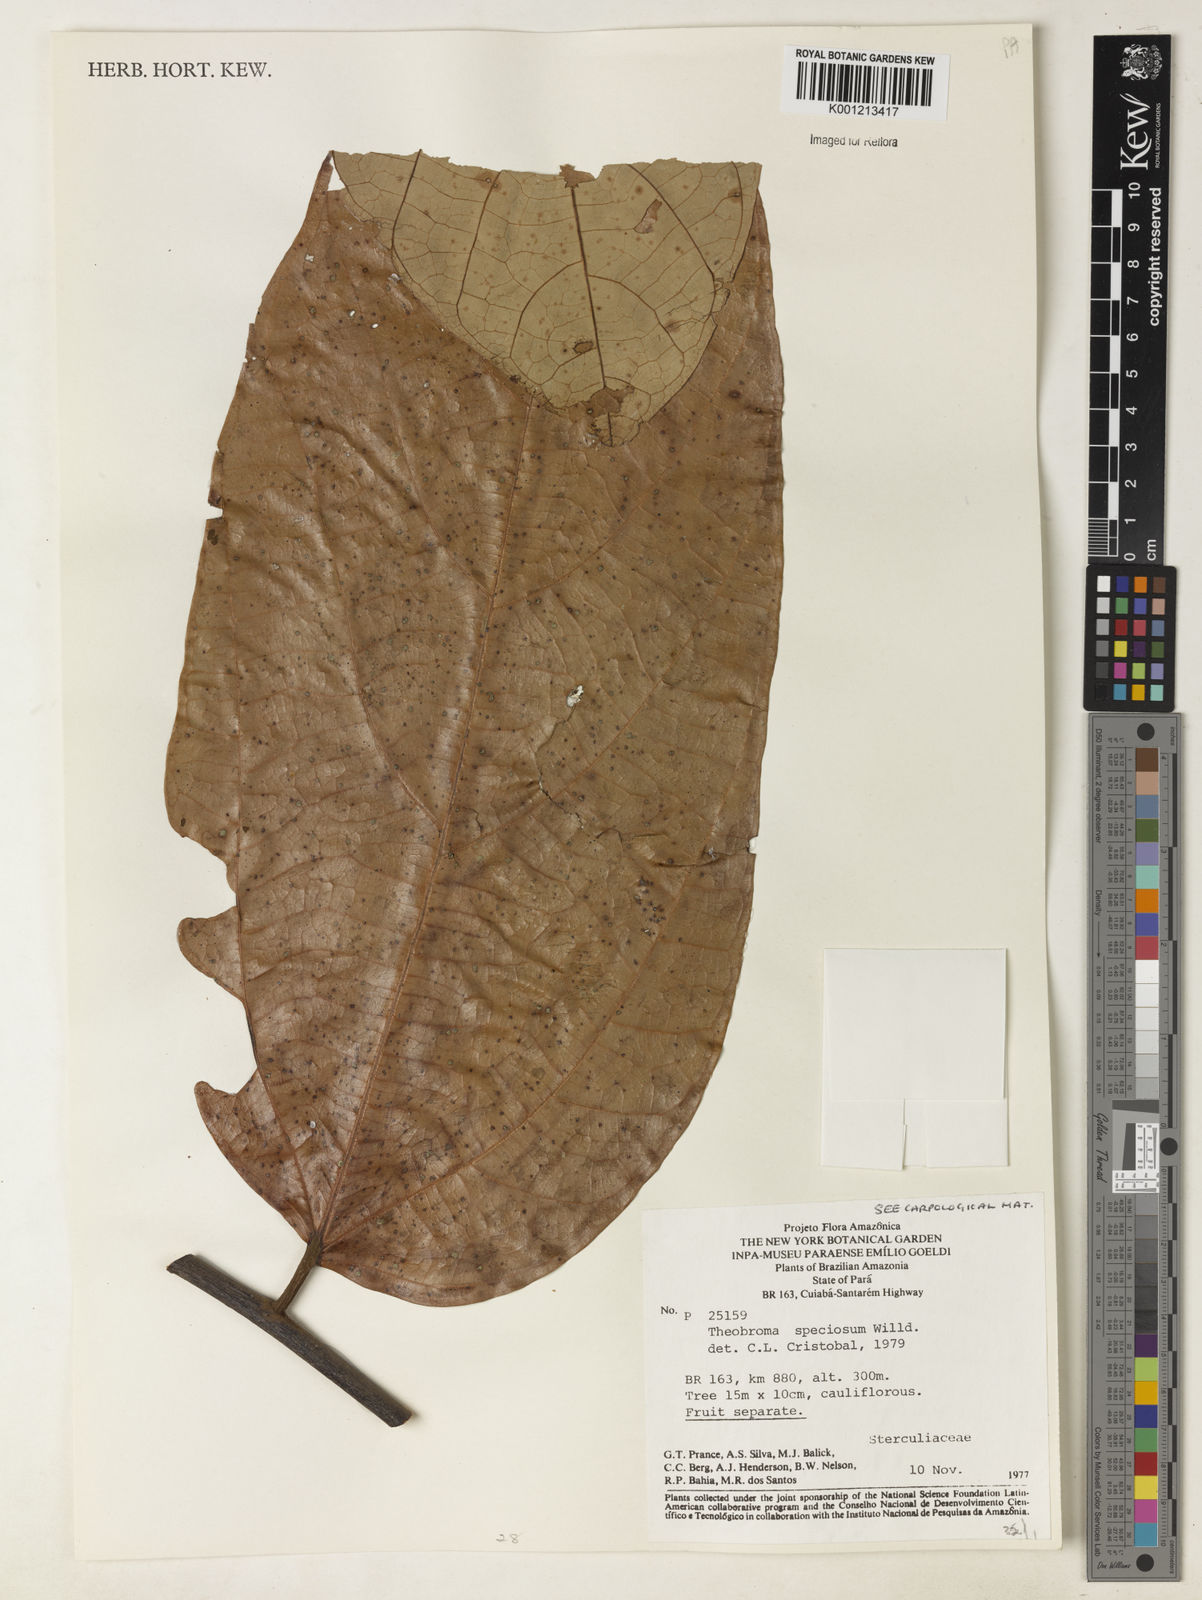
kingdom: Plantae
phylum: Tracheophyta
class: Magnoliopsida
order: Malvales
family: Malvaceae
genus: Theobroma
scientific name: Theobroma speciosum
